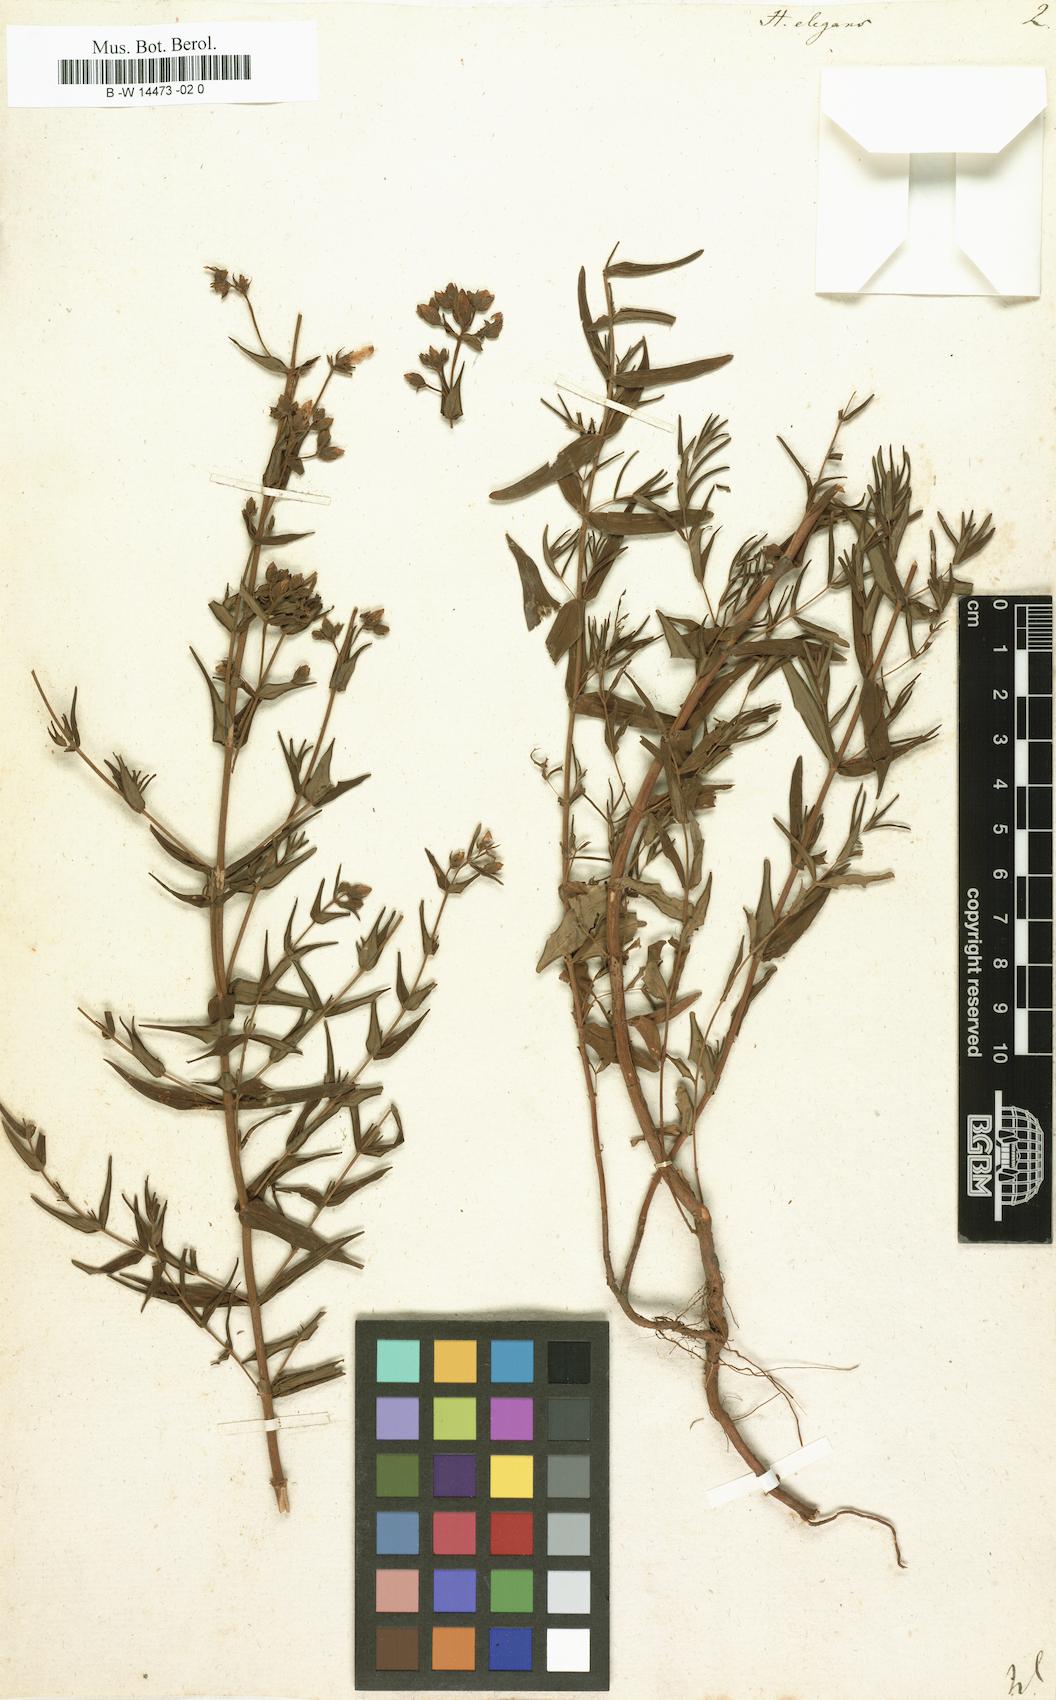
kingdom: Plantae
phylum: Tracheophyta
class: Magnoliopsida
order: Malpighiales
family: Hypericaceae
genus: Hypericum
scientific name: Hypericum elegans
